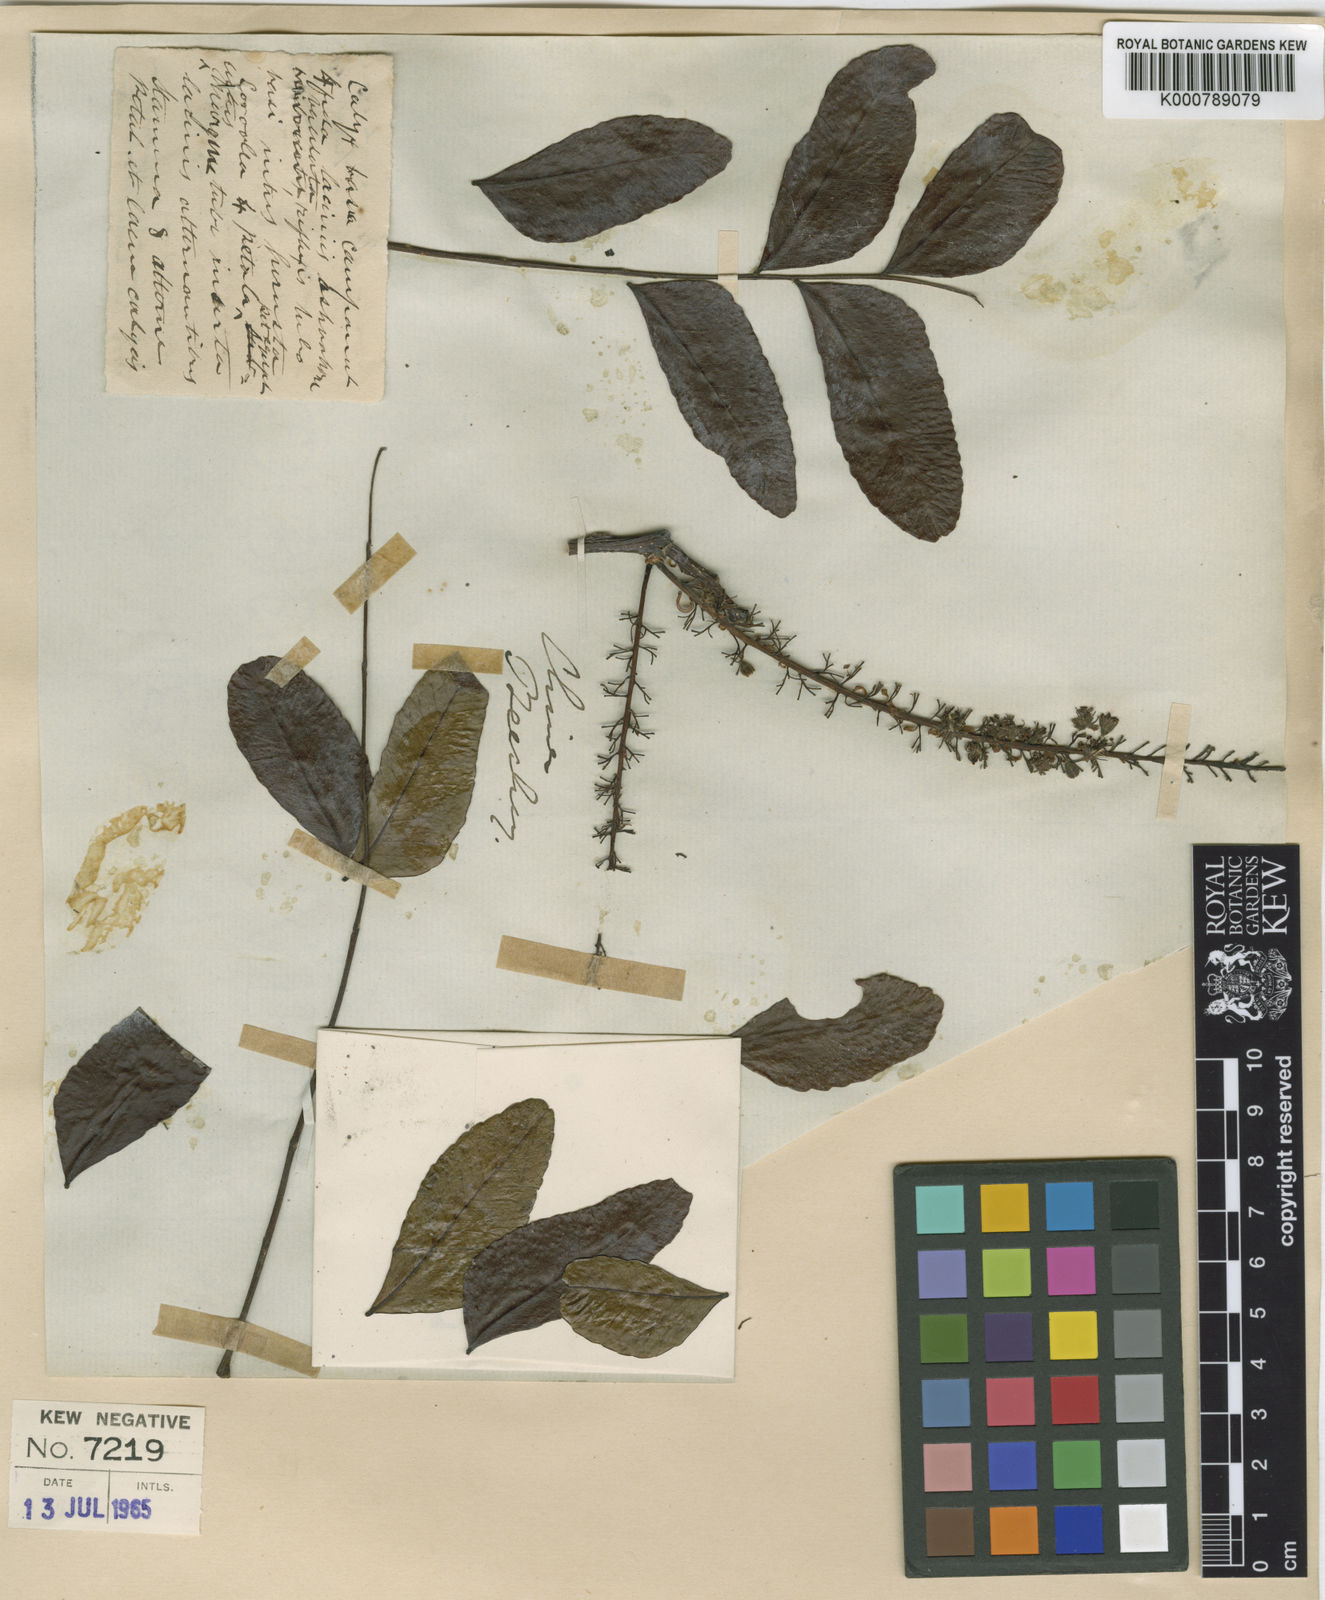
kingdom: Plantae
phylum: Tracheophyta
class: Magnoliopsida
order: Fabales
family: Fabaceae
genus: Gleditsia
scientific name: Gleditsia australis
